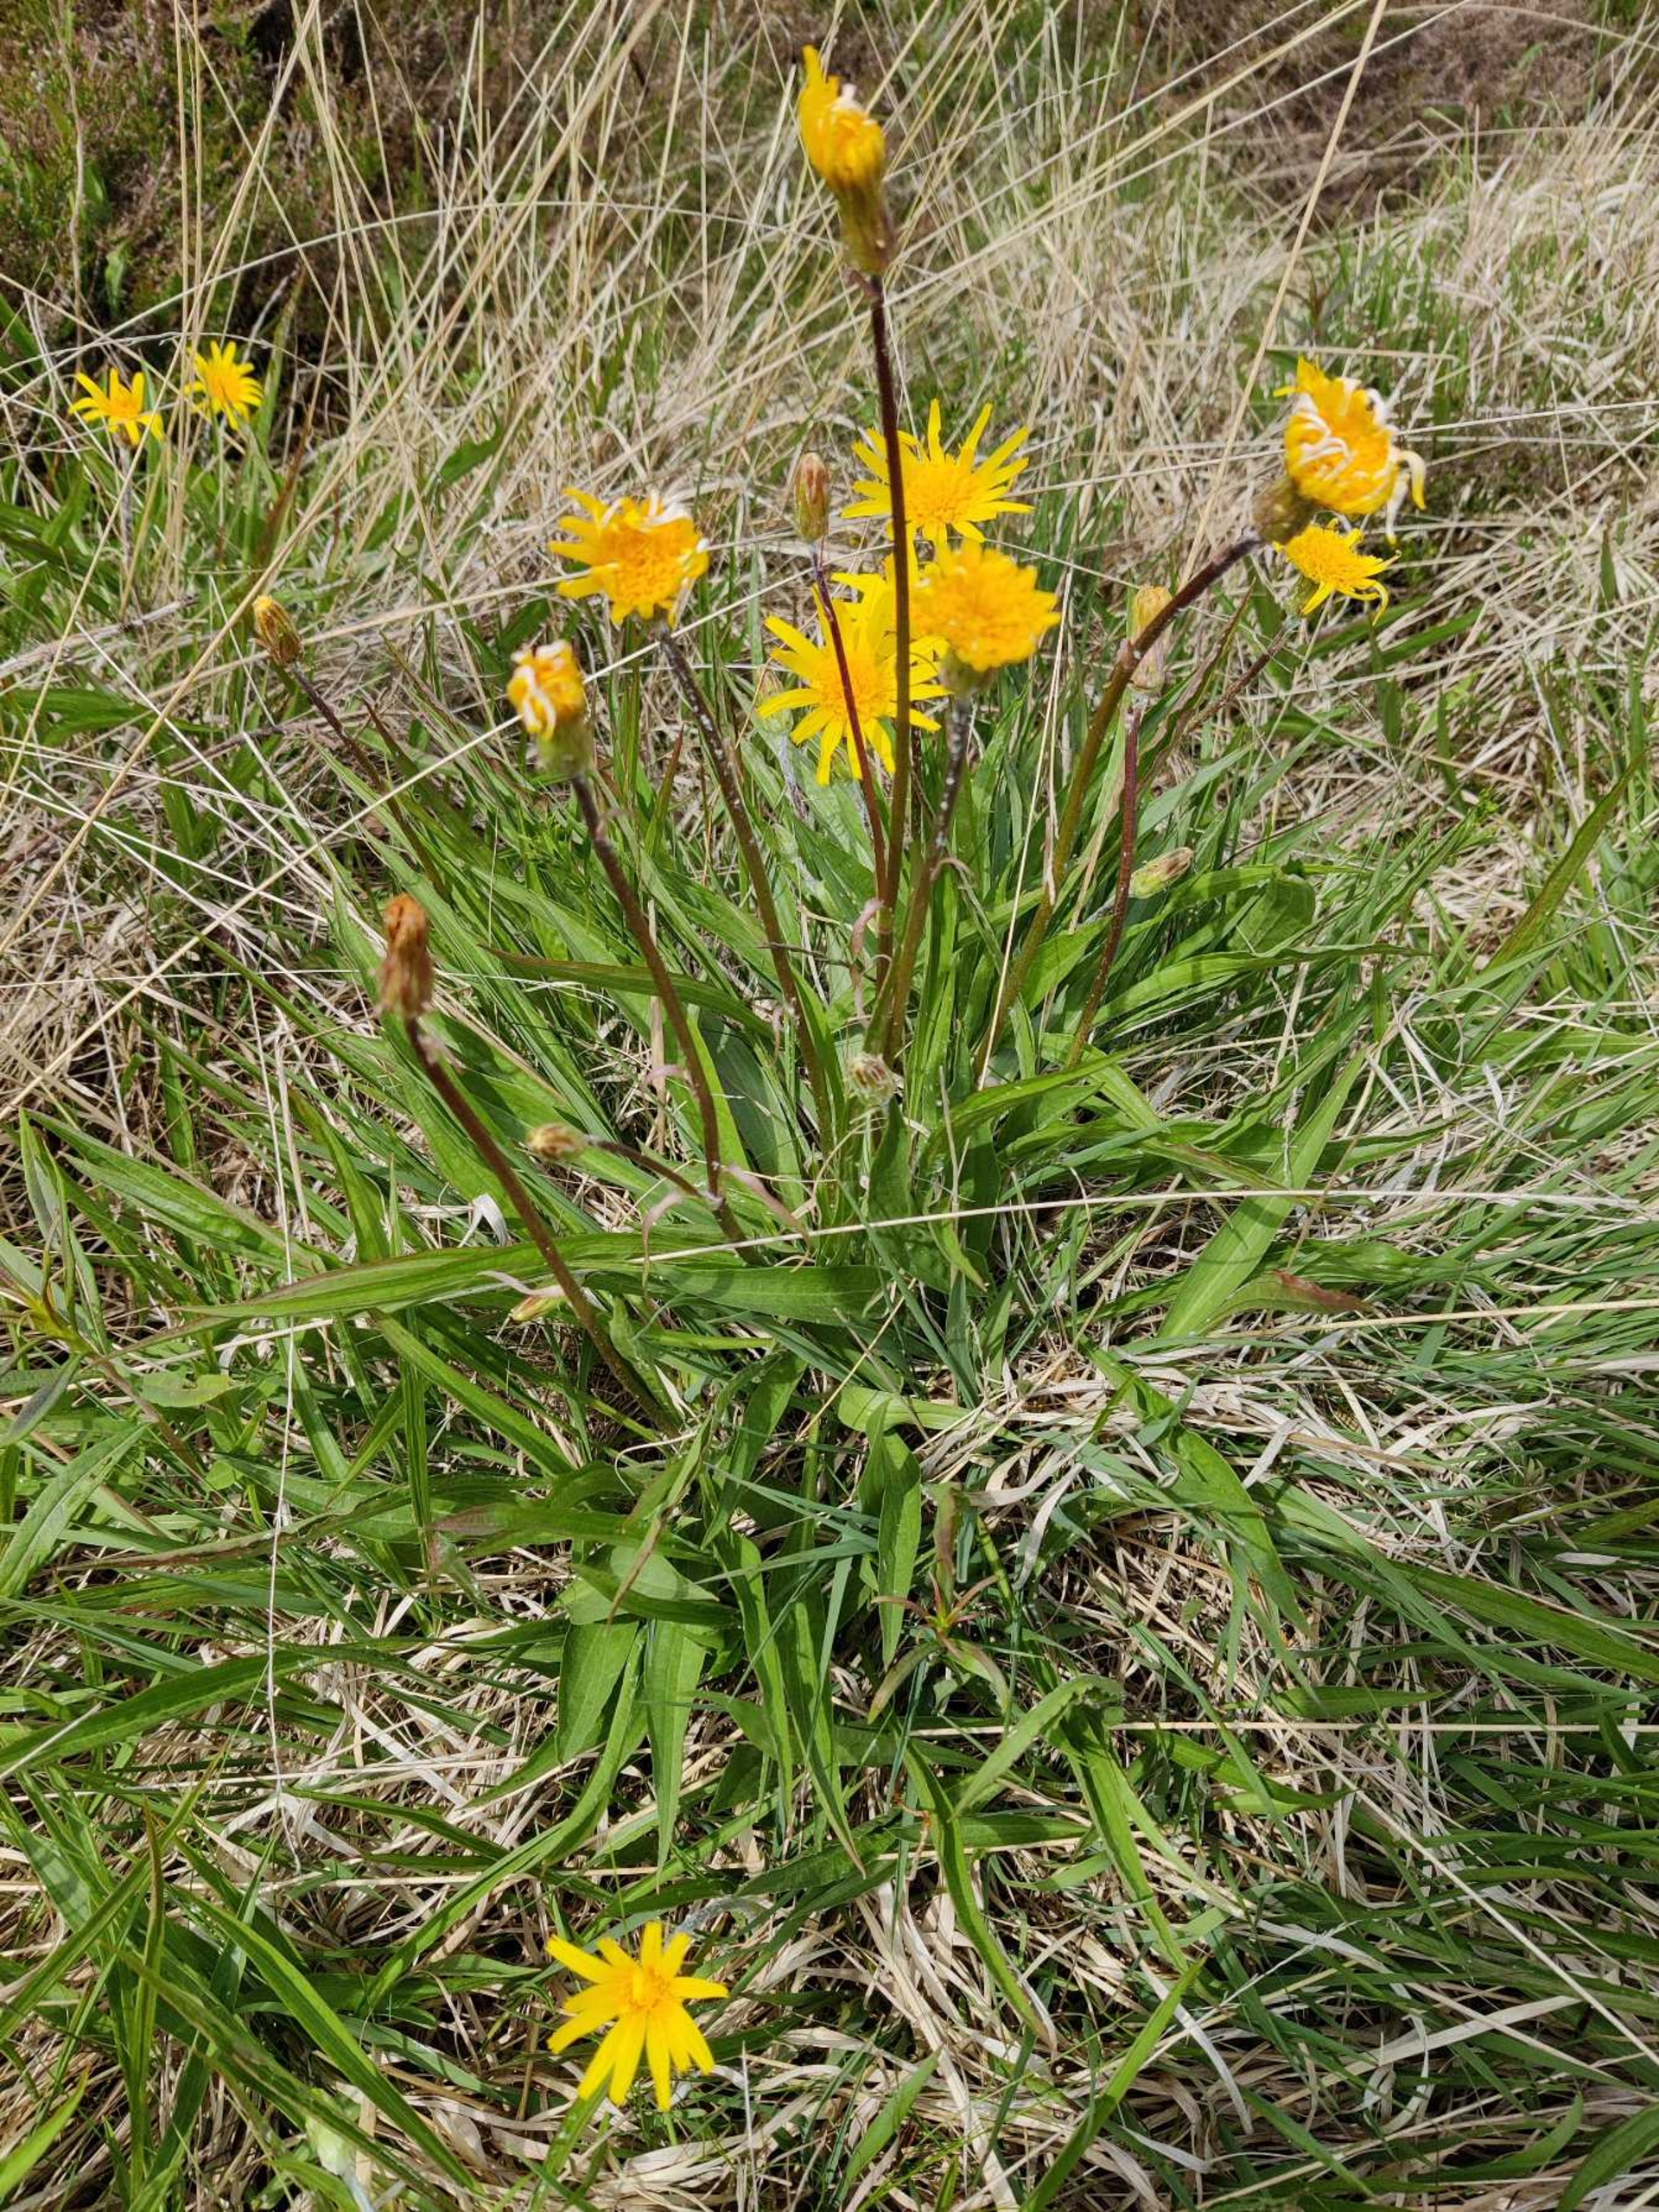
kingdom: Plantae
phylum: Tracheophyta
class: Magnoliopsida
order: Asterales
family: Asteraceae
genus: Scorzonera
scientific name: Scorzonera humilis
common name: Lav skorsoner
